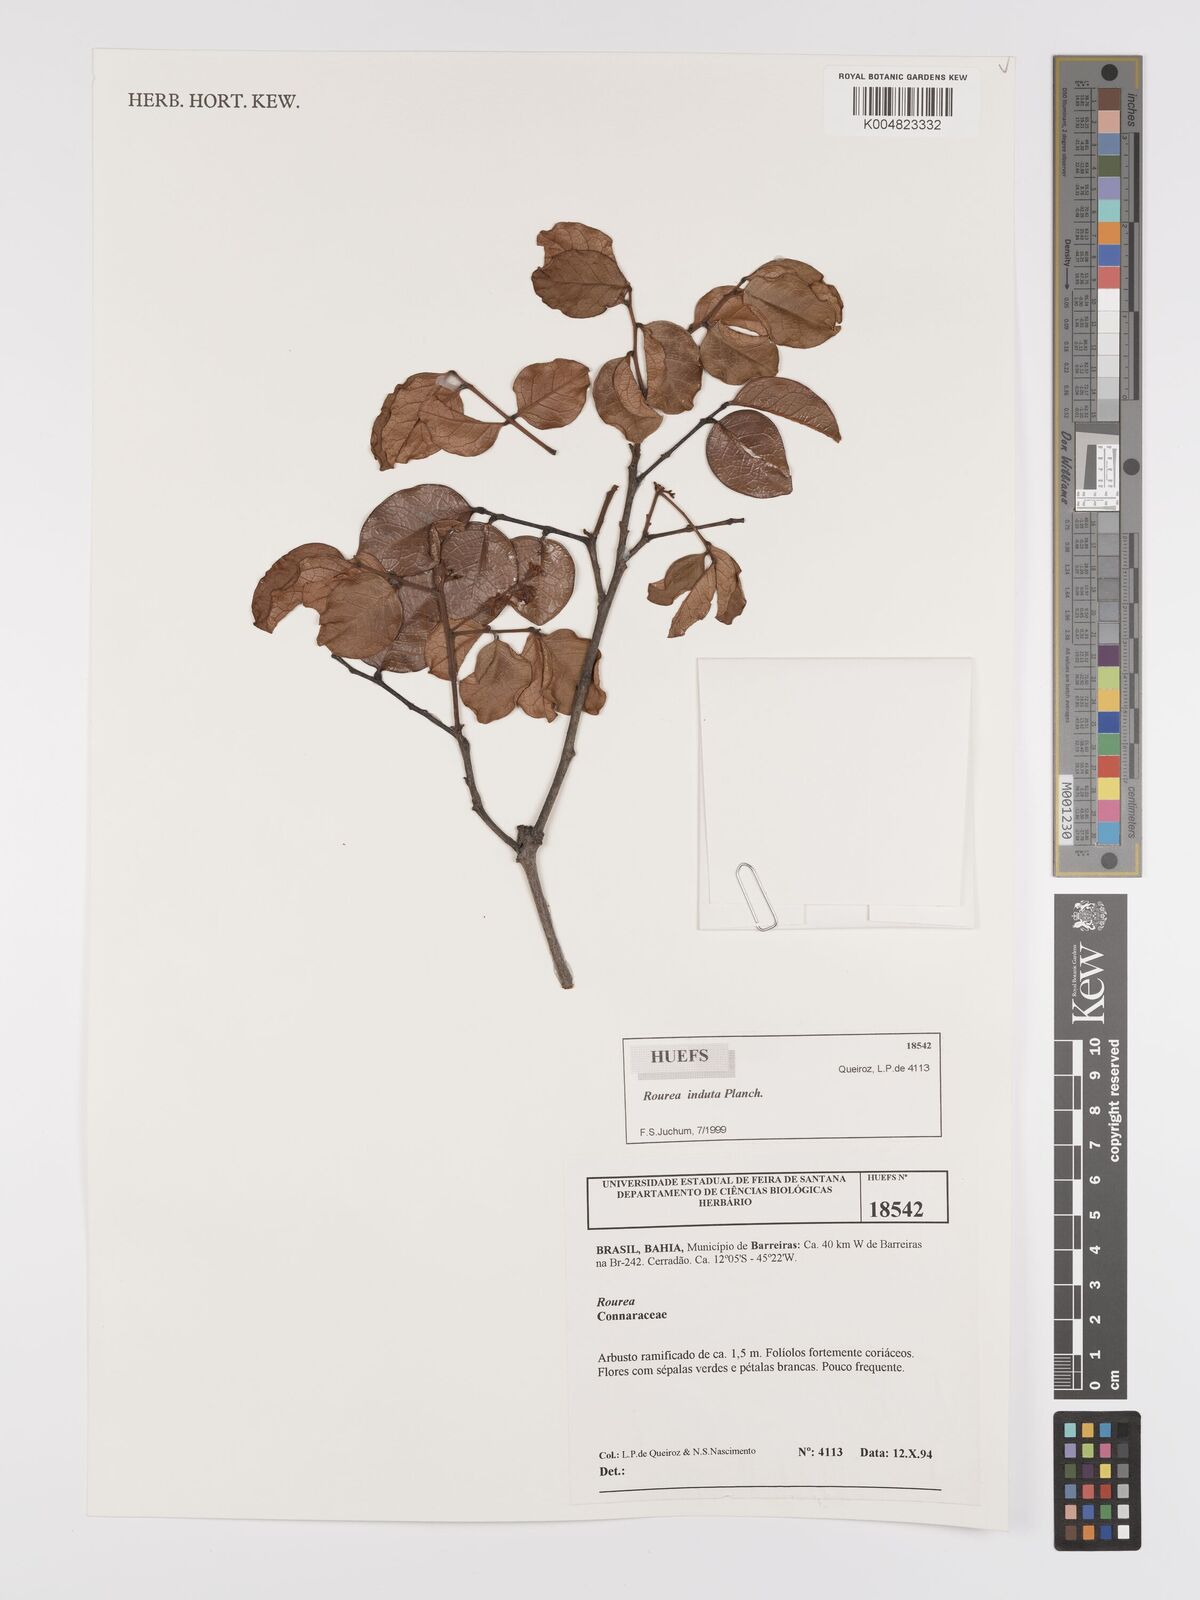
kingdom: Plantae
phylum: Tracheophyta
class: Magnoliopsida
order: Oxalidales
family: Connaraceae
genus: Rourea
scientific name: Rourea induta
